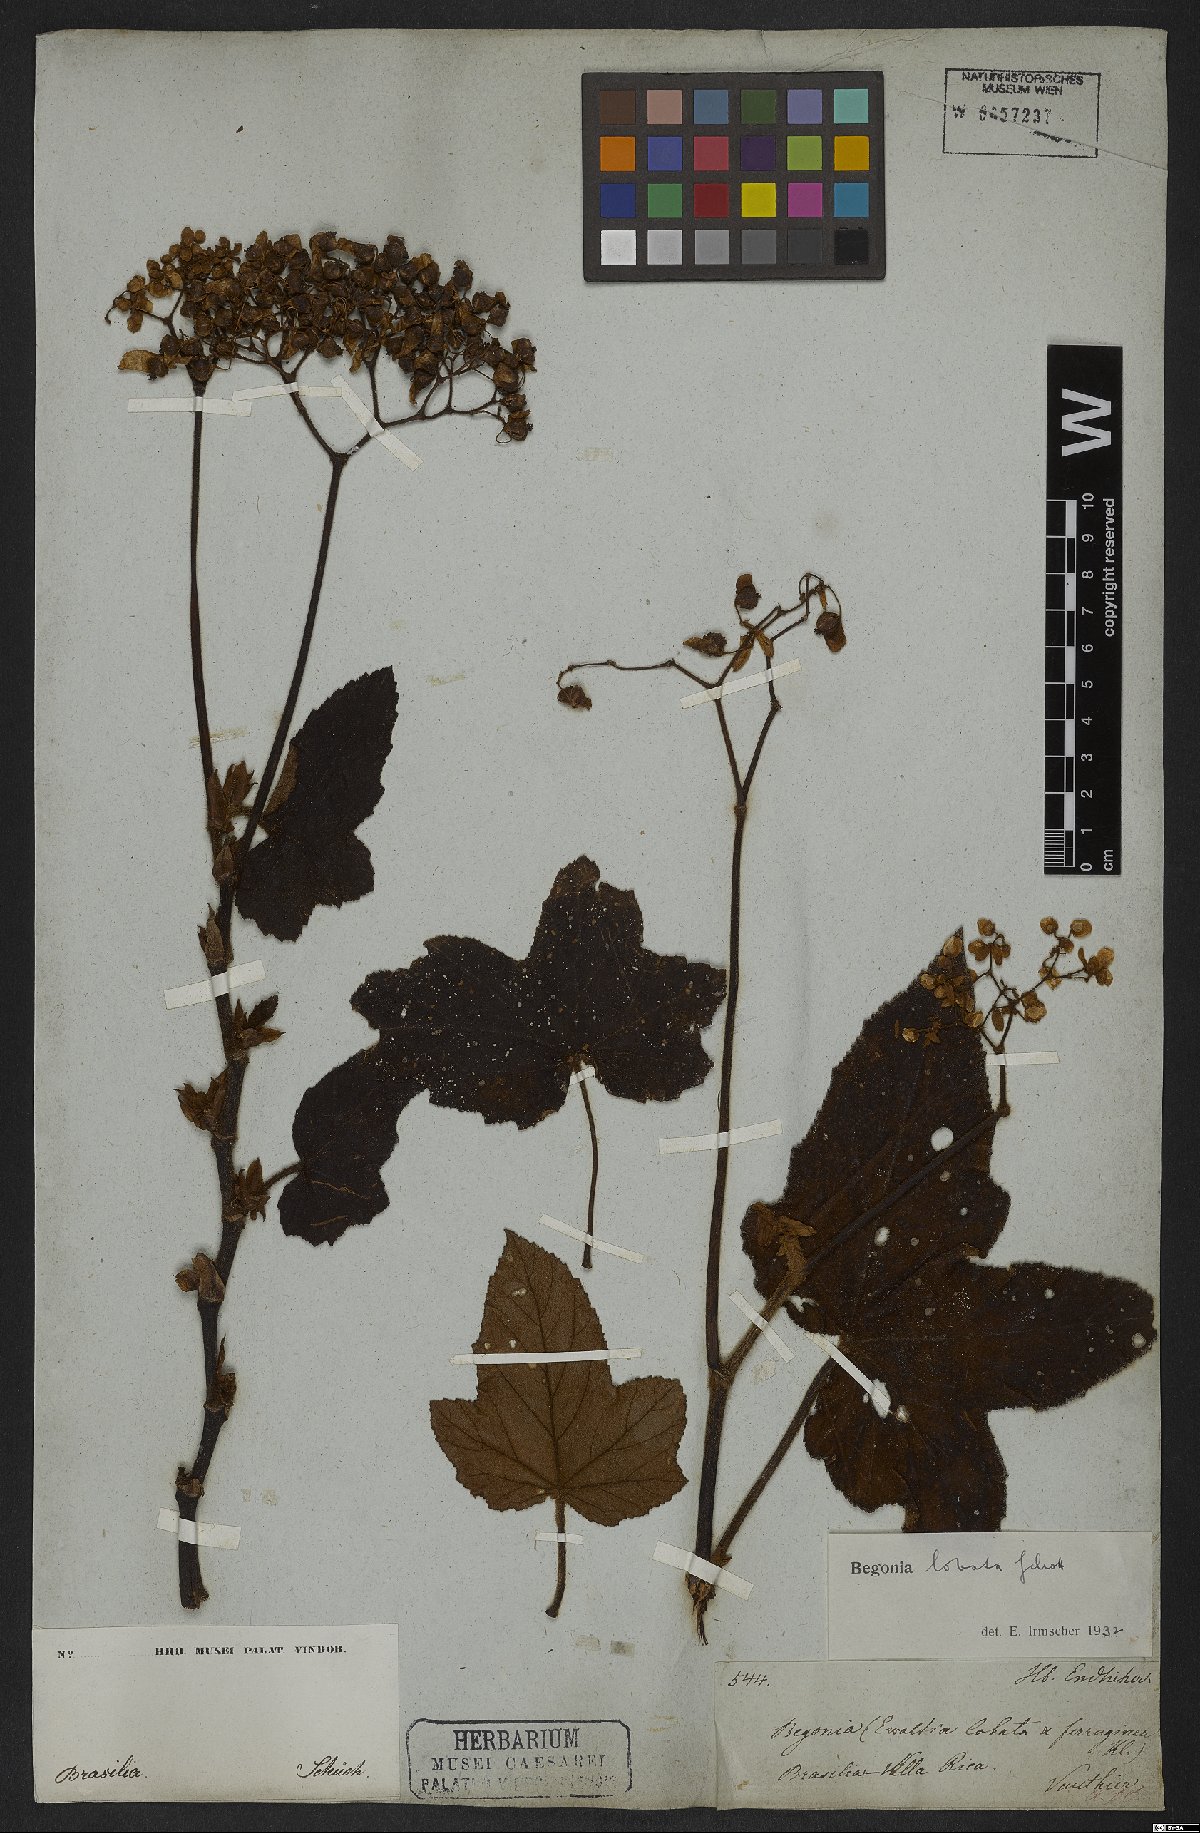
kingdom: Plantae
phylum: Tracheophyta
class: Magnoliopsida
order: Cucurbitales
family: Begoniaceae
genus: Begonia
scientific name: Begonia rufa
